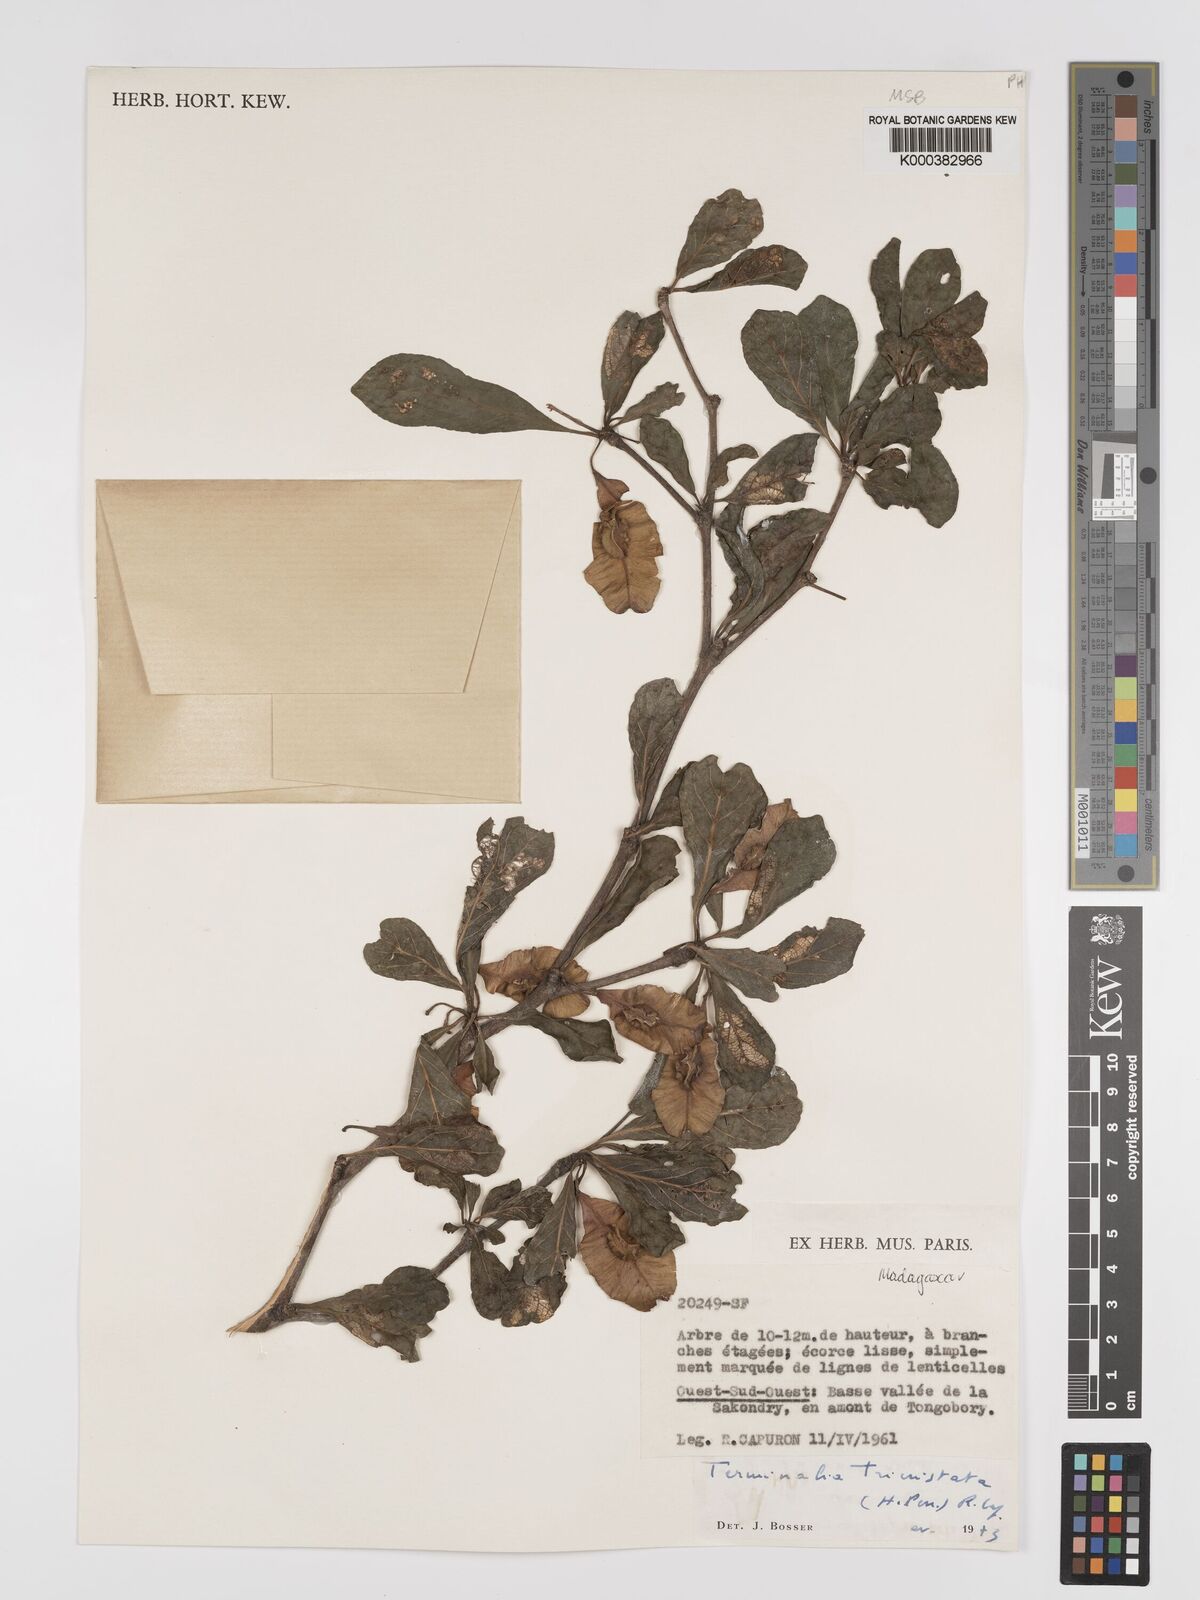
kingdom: Plantae
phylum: Tracheophyta
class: Magnoliopsida
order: Myrtales
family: Combretaceae
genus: Terminalia
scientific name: Terminalia
